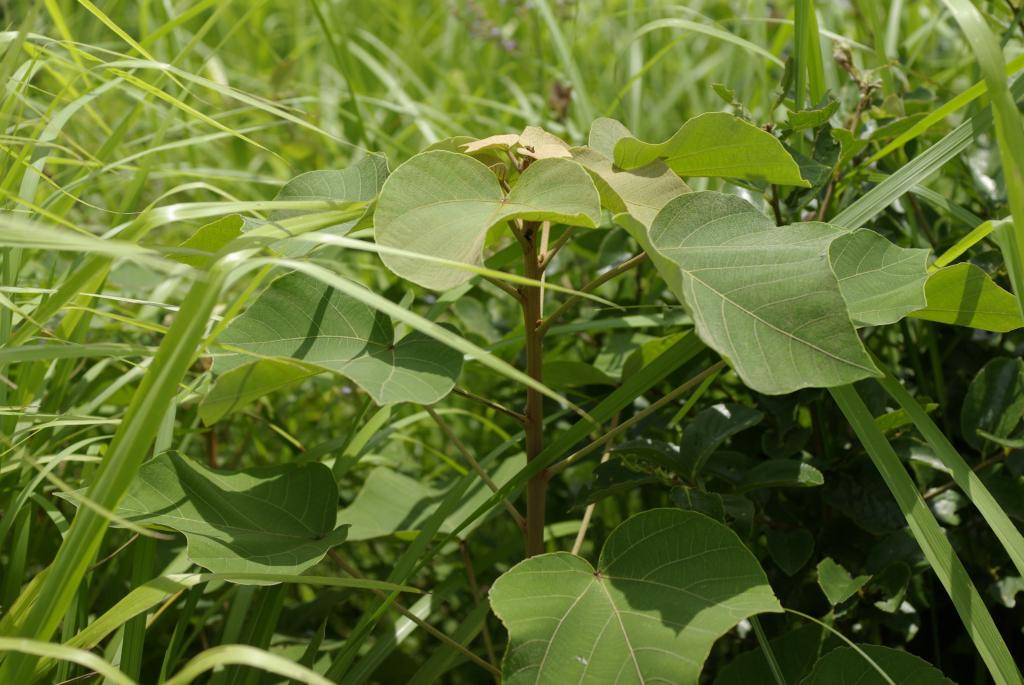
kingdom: Plantae
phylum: Tracheophyta
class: Magnoliopsida
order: Malpighiales
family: Euphorbiaceae
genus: Mallotus
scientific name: Mallotus japonicus
